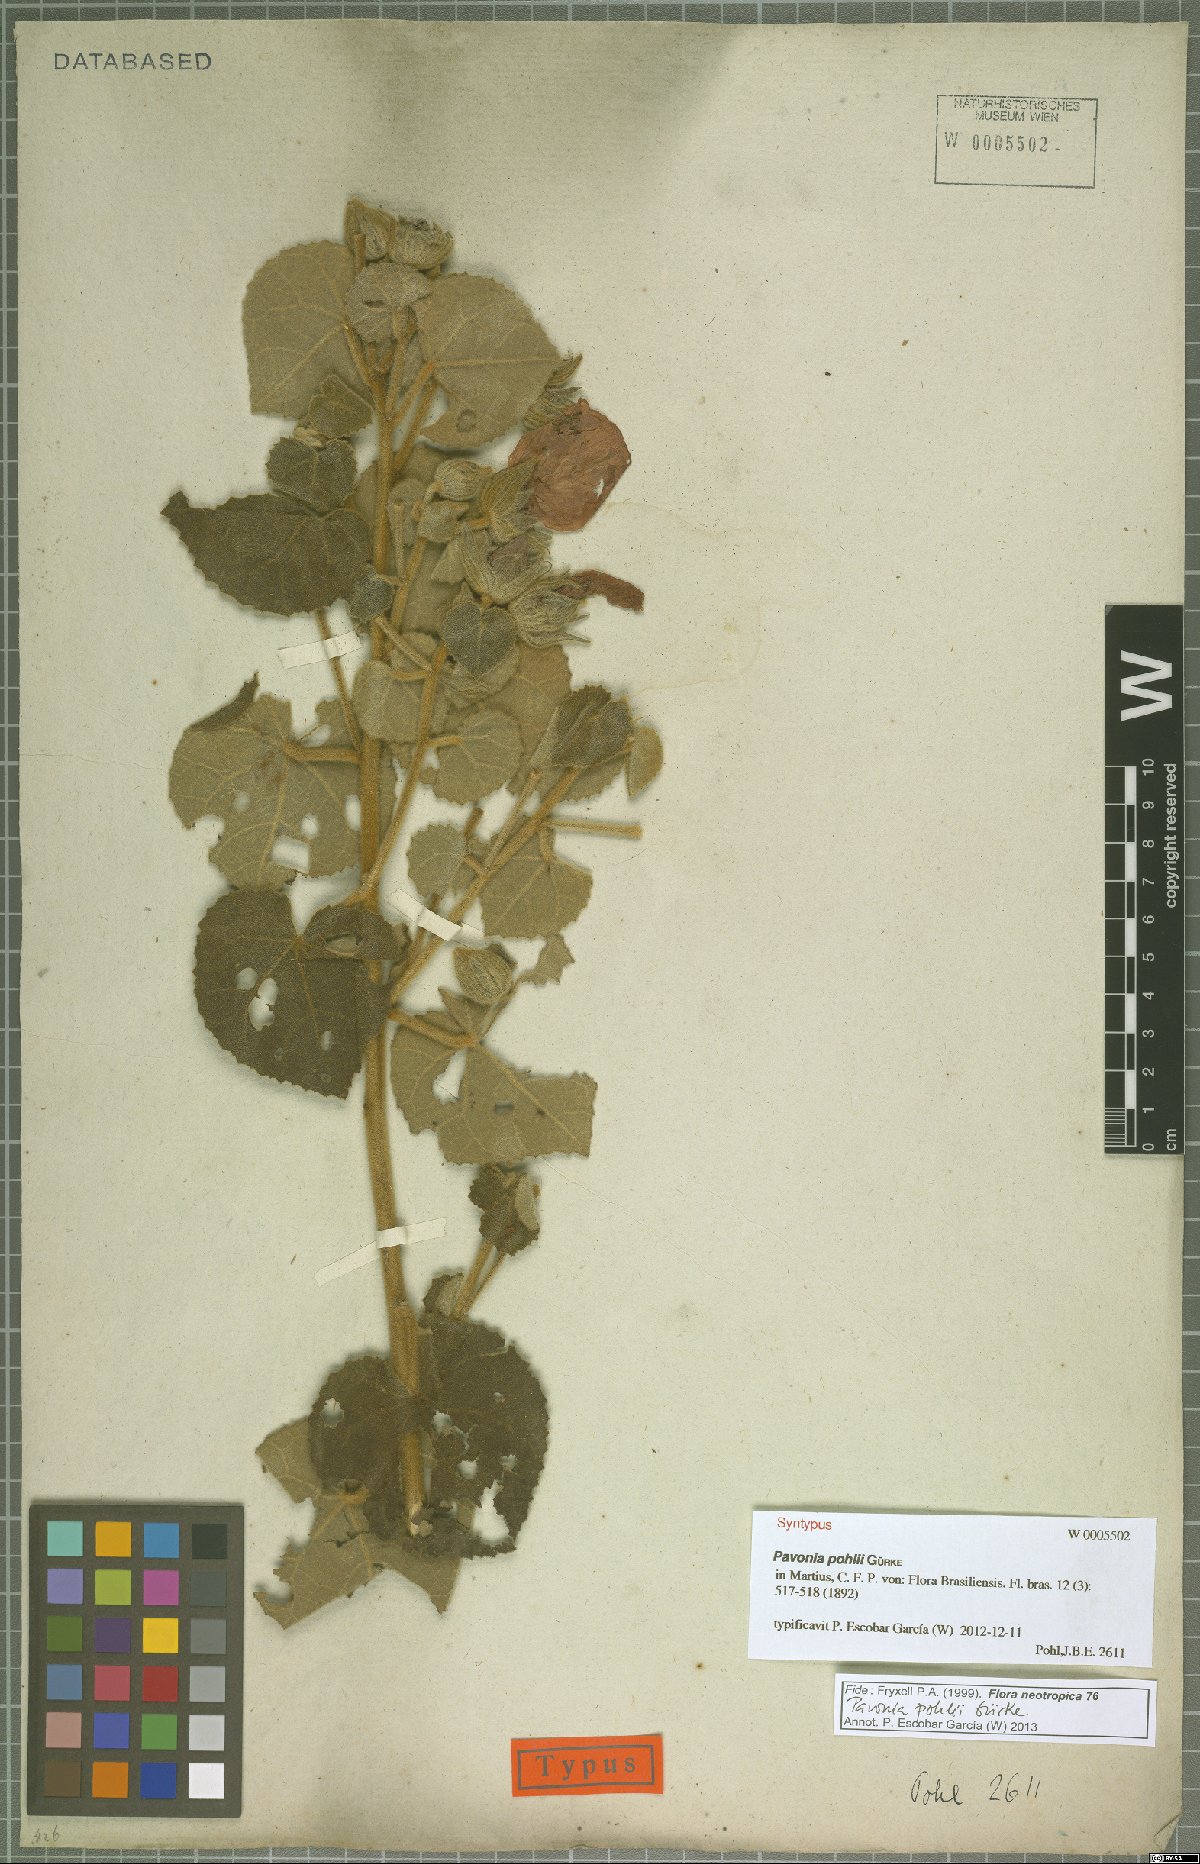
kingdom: Plantae
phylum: Tracheophyta
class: Magnoliopsida
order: Malvales
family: Malvaceae
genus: Pavonia
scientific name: Pavonia pohlii
